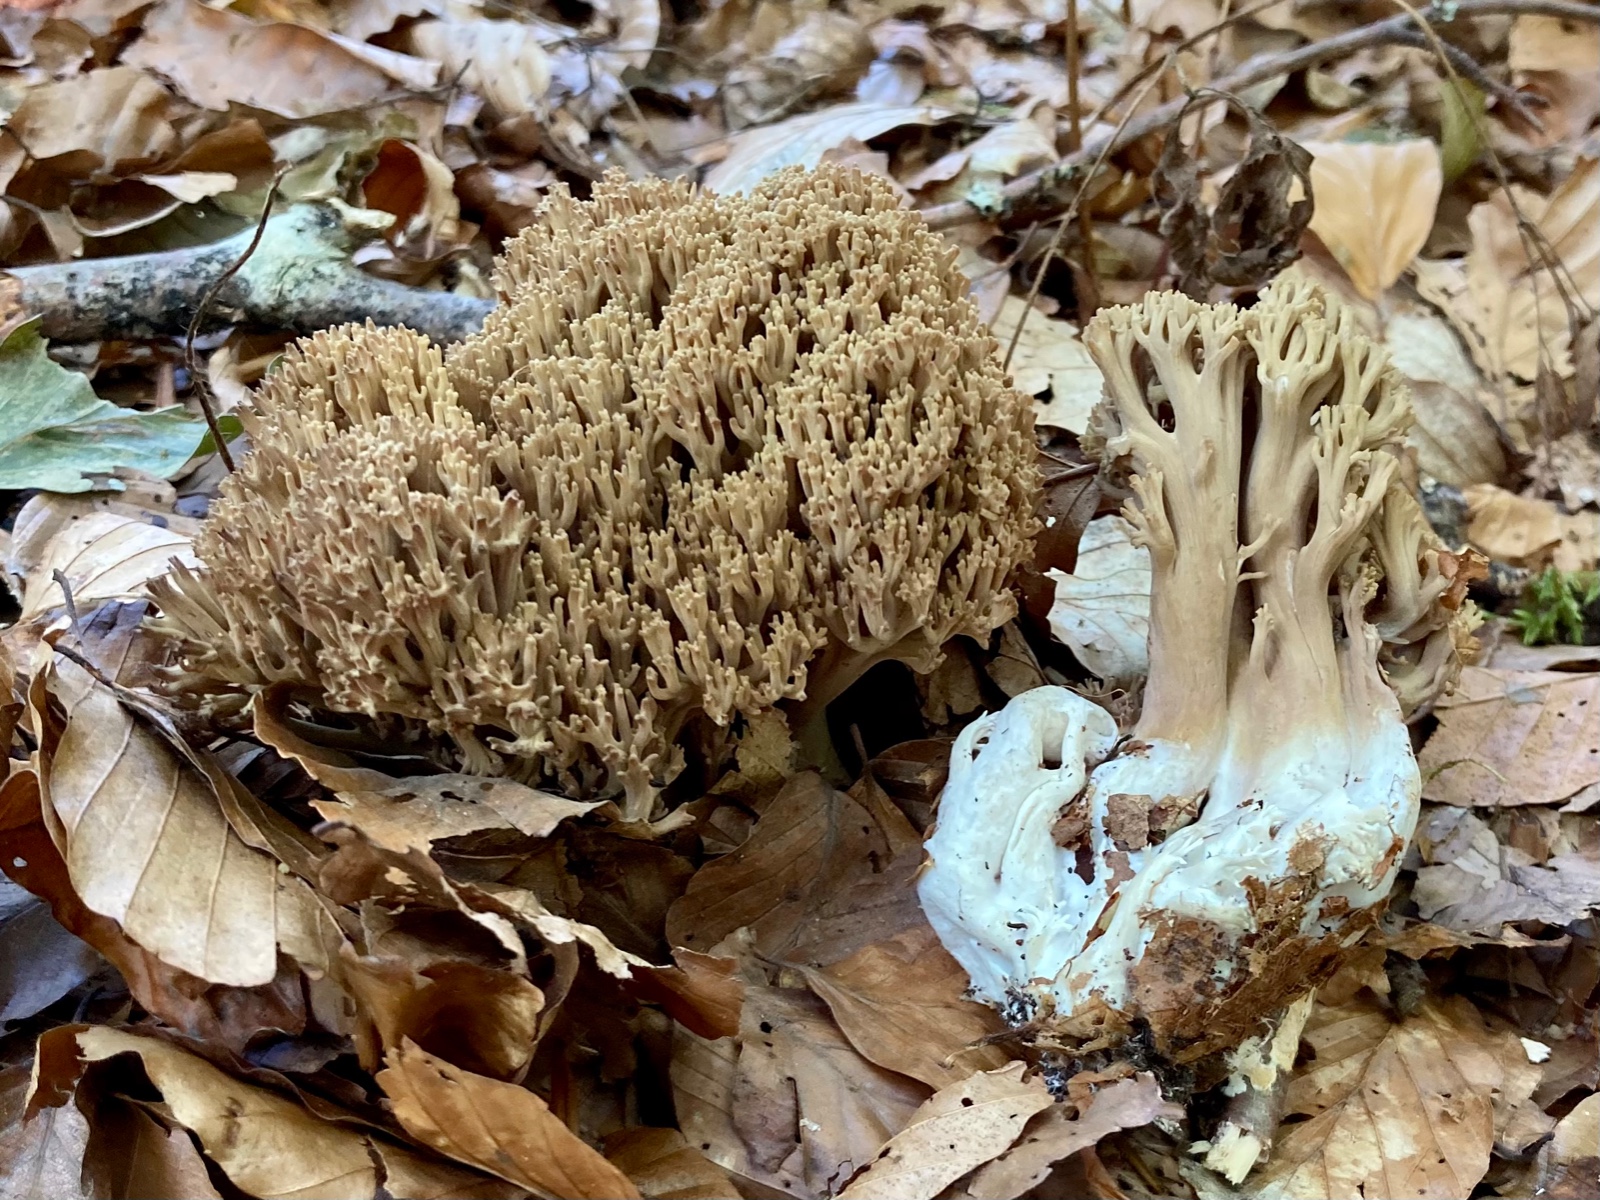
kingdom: Fungi
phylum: Basidiomycota
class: Agaricomycetes
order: Gomphales
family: Gomphaceae
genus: Ramaria
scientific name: Ramaria
